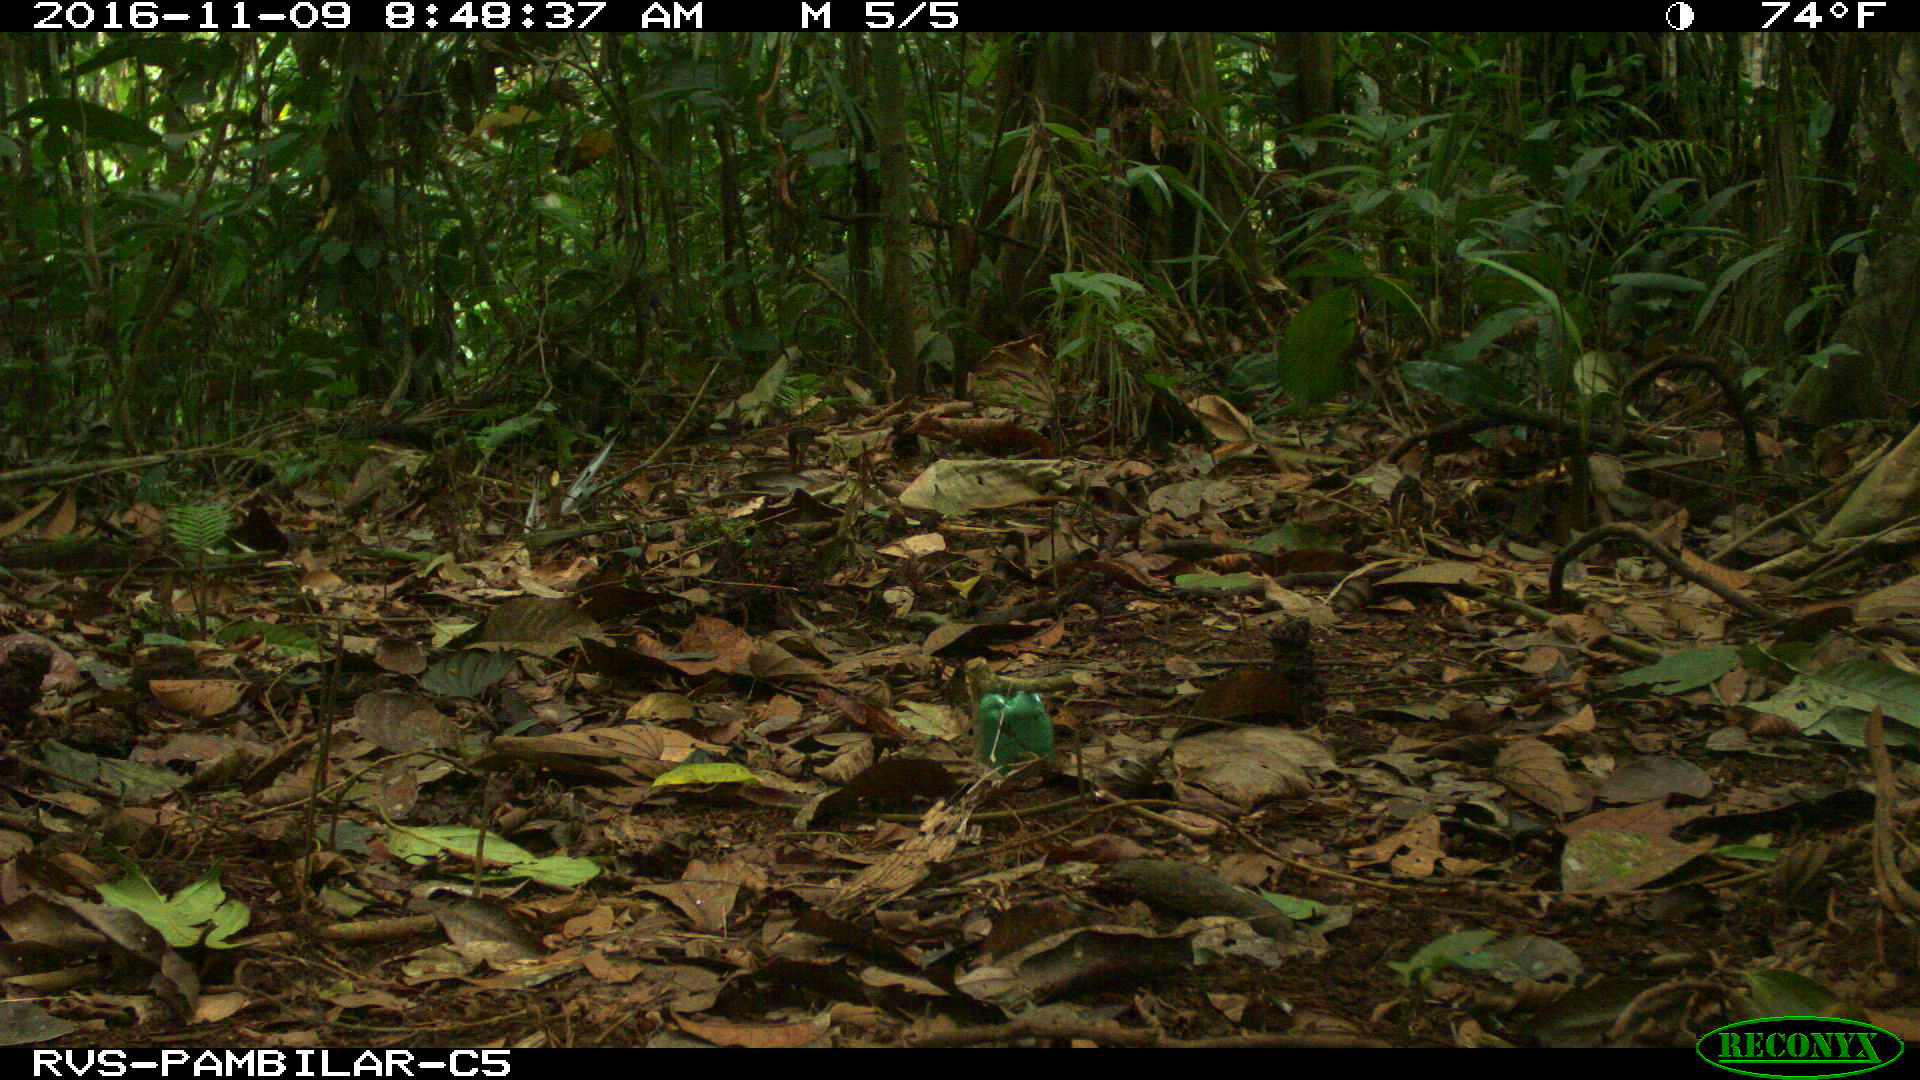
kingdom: Animalia
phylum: Chordata
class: Mammalia
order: Rodentia
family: Dasyproctidae
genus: Dasyprocta
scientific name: Dasyprocta punctata
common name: Central american agouti
